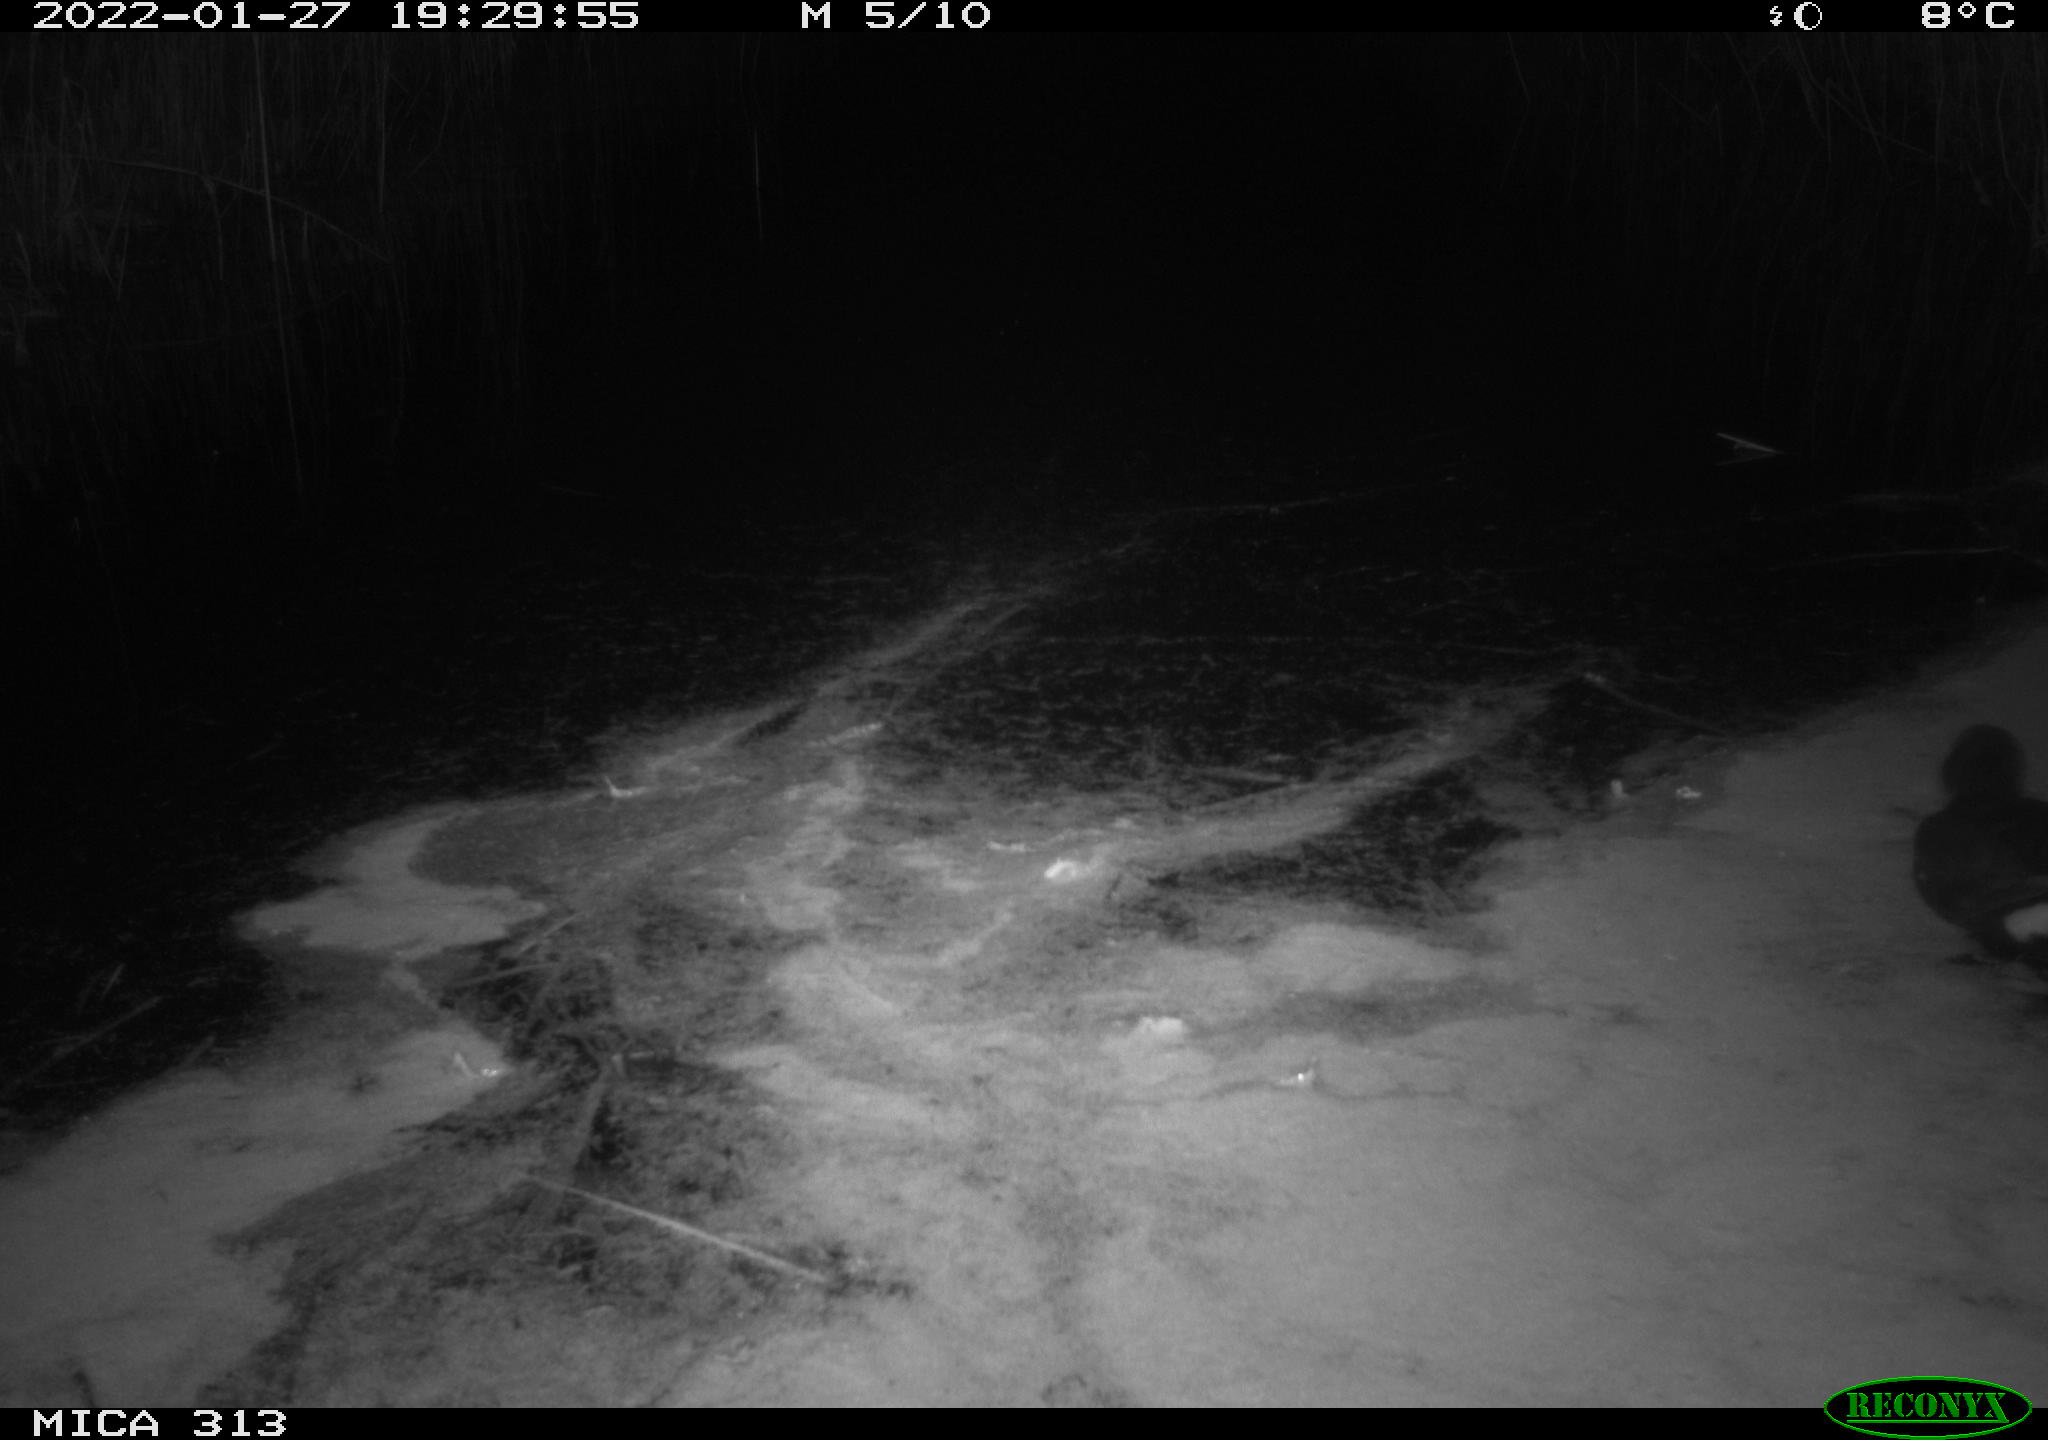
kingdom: Animalia
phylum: Chordata
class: Aves
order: Gruiformes
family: Rallidae
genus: Gallinula
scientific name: Gallinula chloropus
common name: Common moorhen
